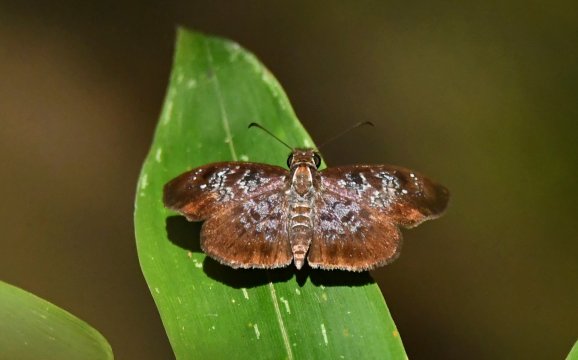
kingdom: Animalia
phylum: Arthropoda
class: Insecta
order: Lepidoptera
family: Hesperiidae
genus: Sophista
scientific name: Sophista bifasciata
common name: Metal-studded Skipper
